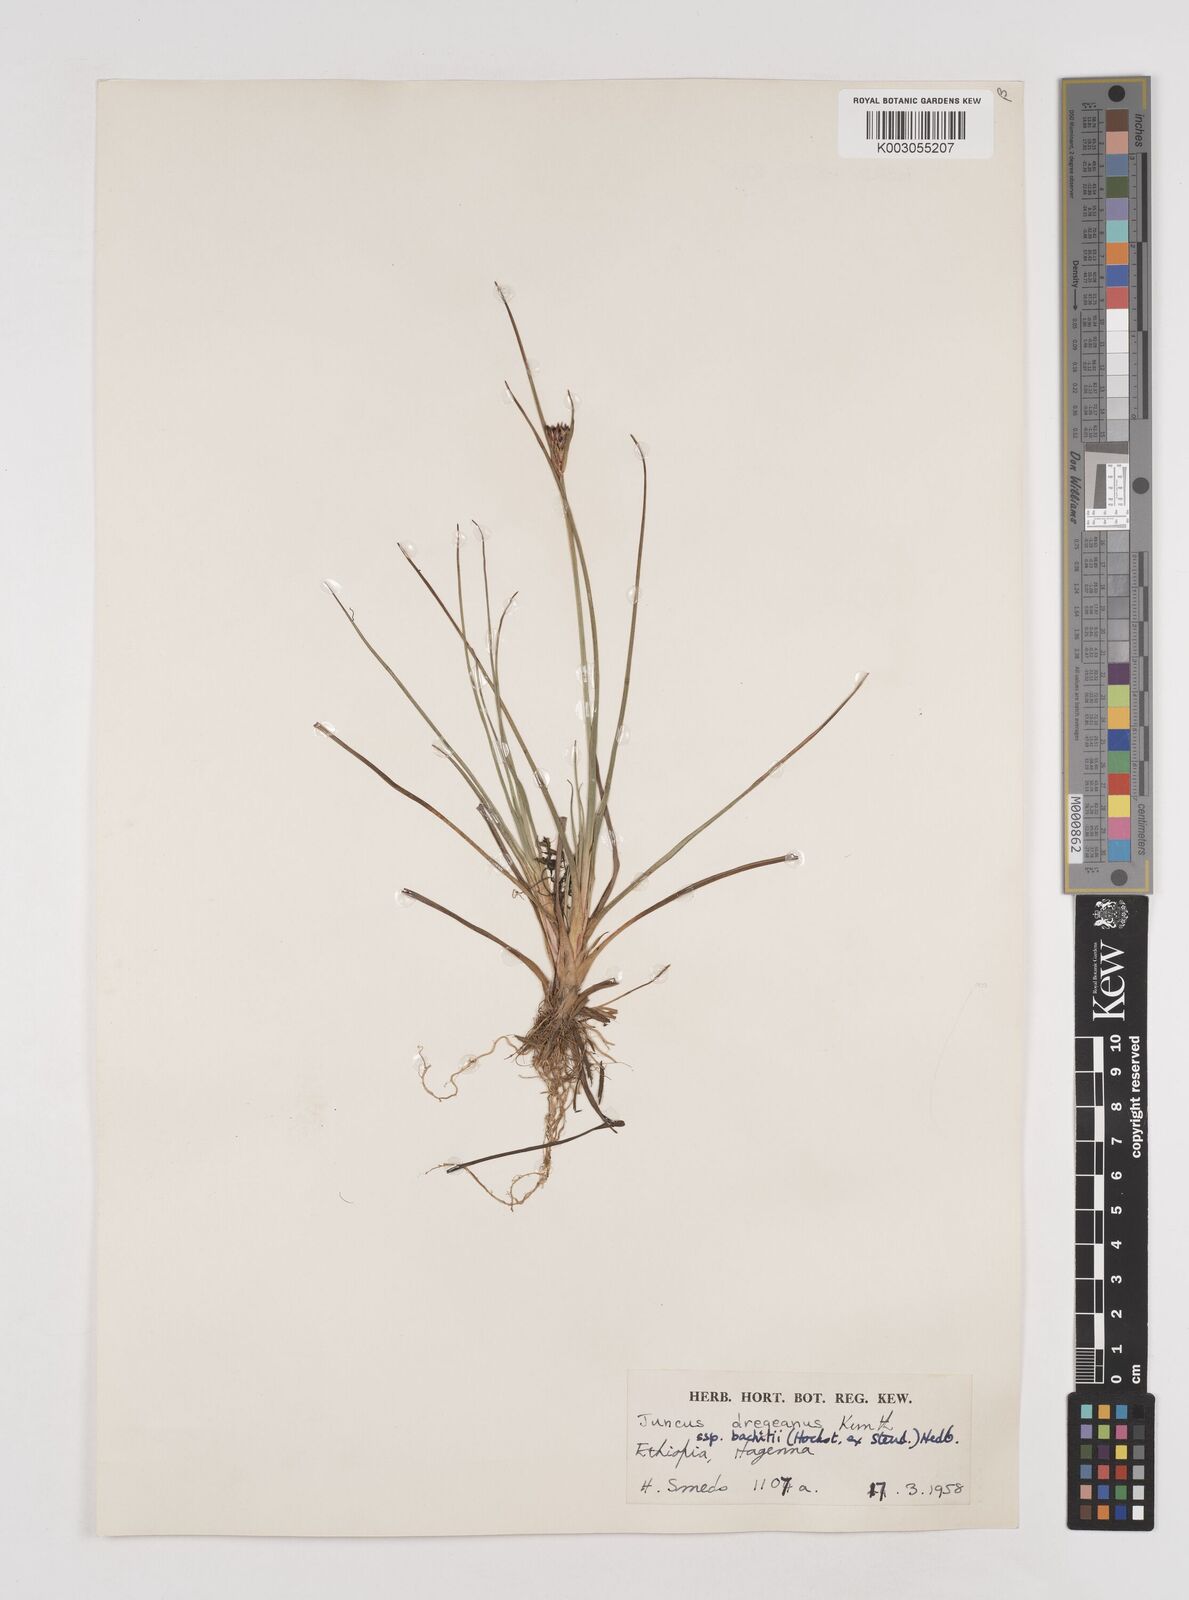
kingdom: Plantae
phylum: Tracheophyta
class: Liliopsida
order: Poales
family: Juncaceae
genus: Juncus
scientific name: Juncus dregeanus
